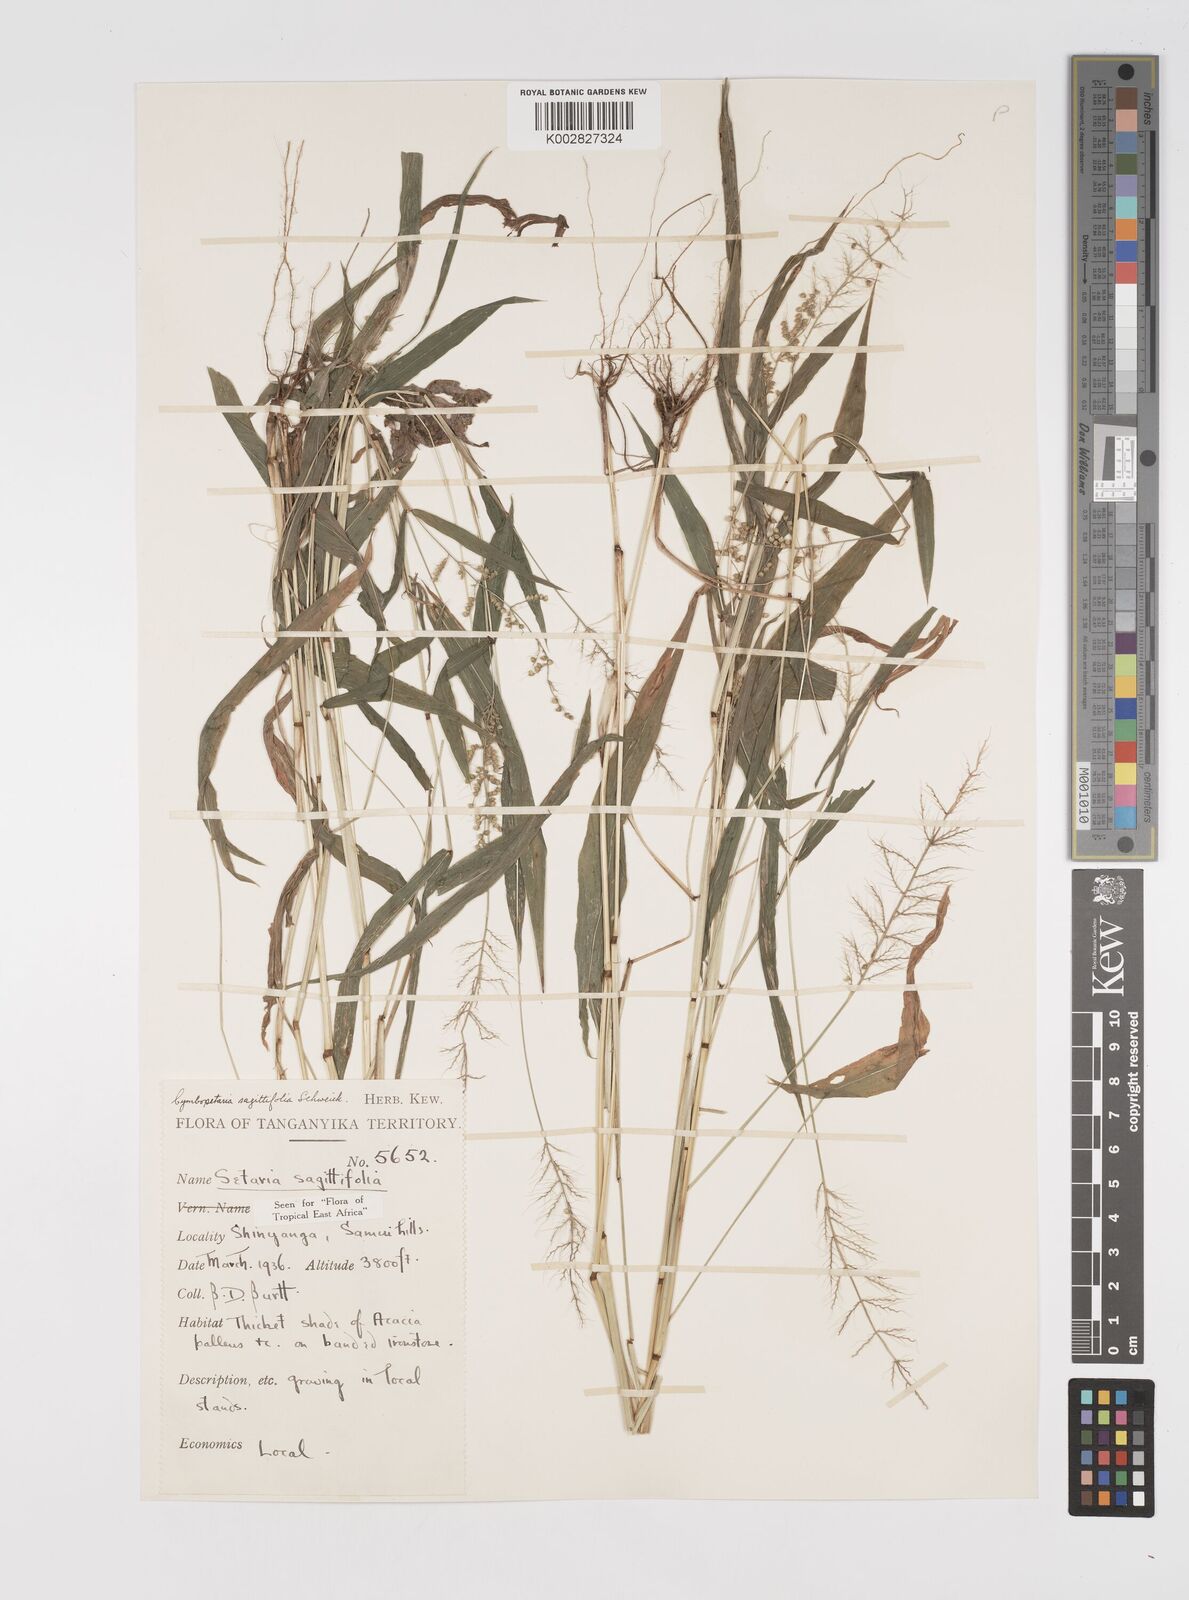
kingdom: Plantae
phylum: Tracheophyta
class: Liliopsida
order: Poales
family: Poaceae
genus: Setaria
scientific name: Setaria sagittifolia
